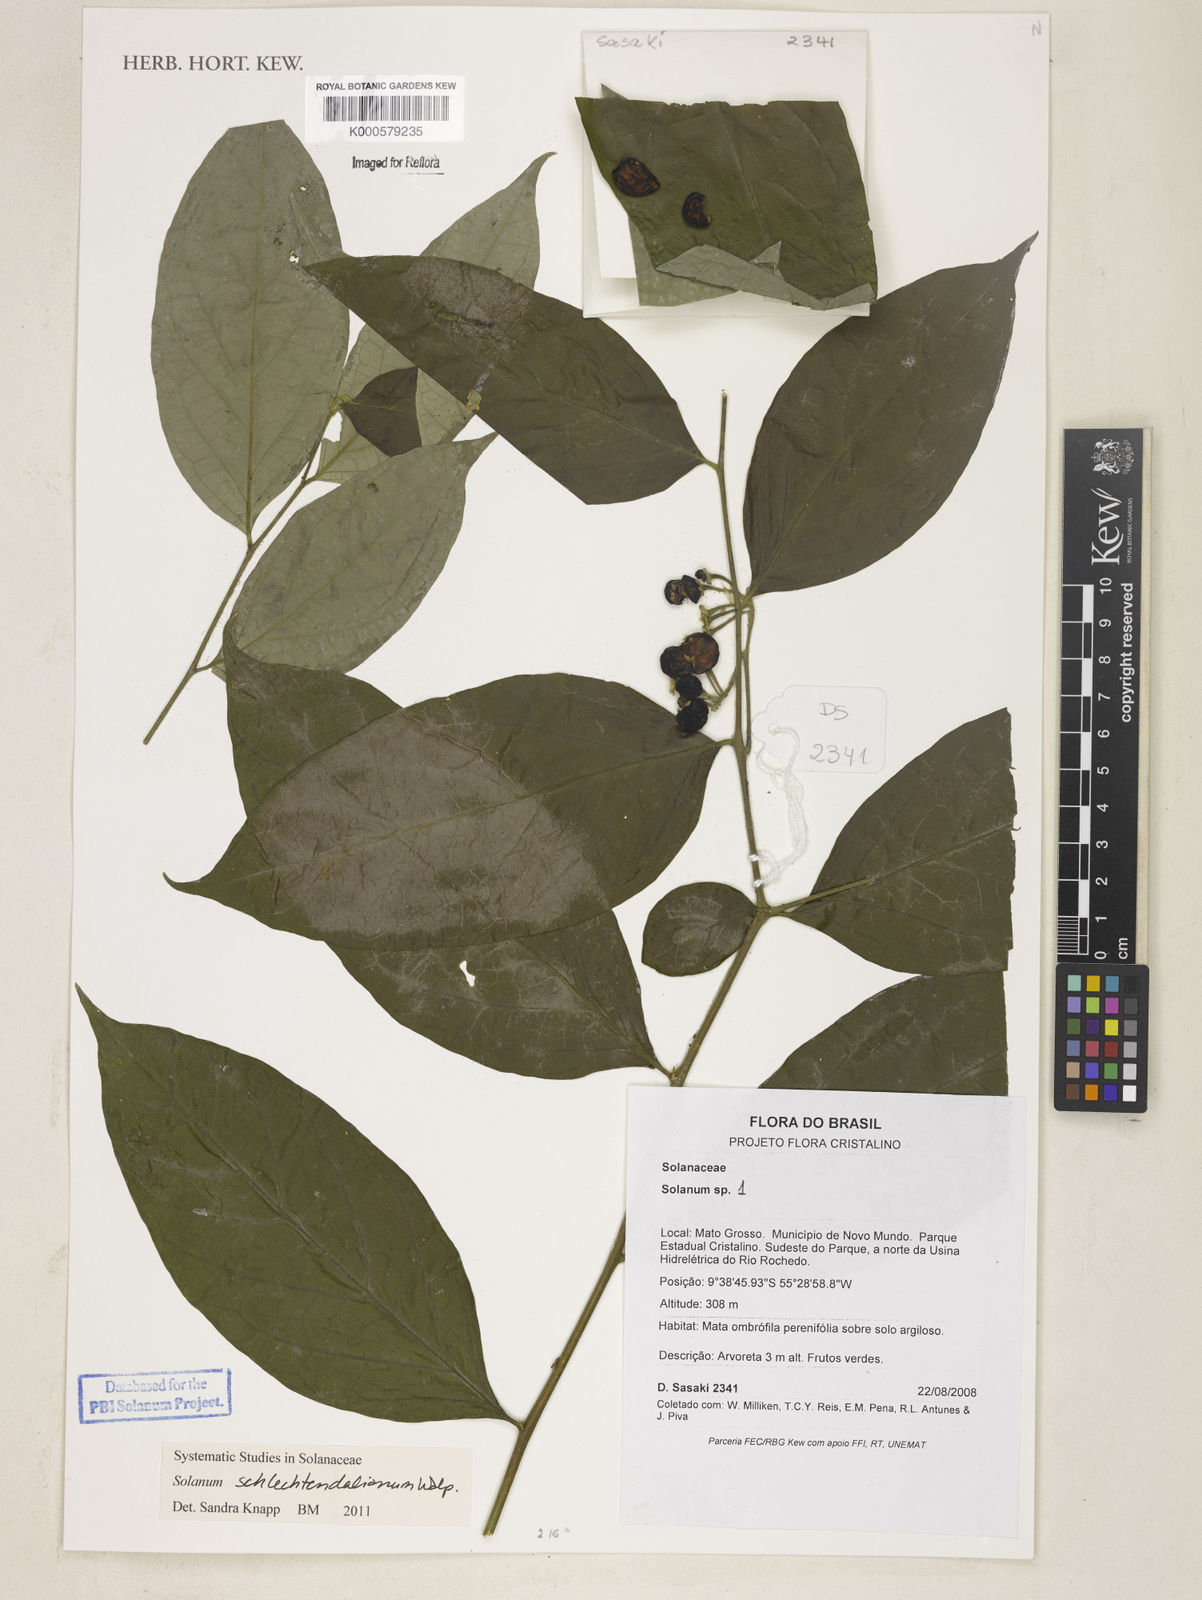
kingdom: Plantae
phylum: Tracheophyta
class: Magnoliopsida
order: Solanales
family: Solanaceae
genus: Solanum
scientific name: Solanum
